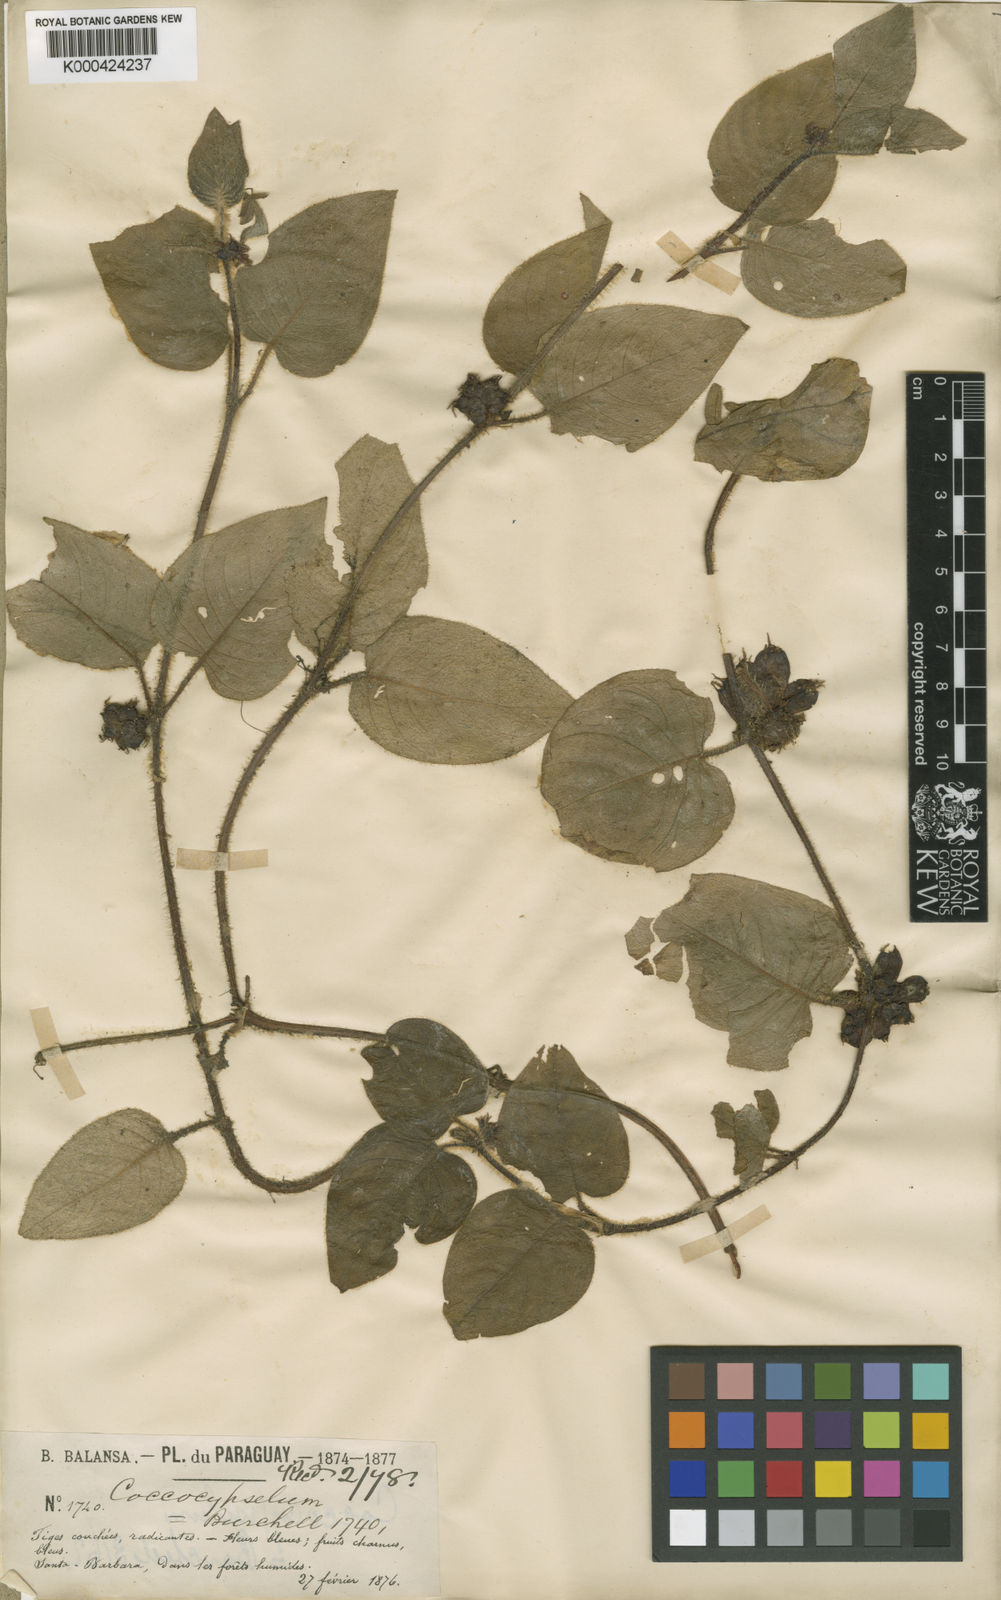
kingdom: Plantae
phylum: Tracheophyta
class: Magnoliopsida
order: Gentianales
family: Rubiaceae
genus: Coccocypselum
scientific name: Coccocypselum hasslerianum
